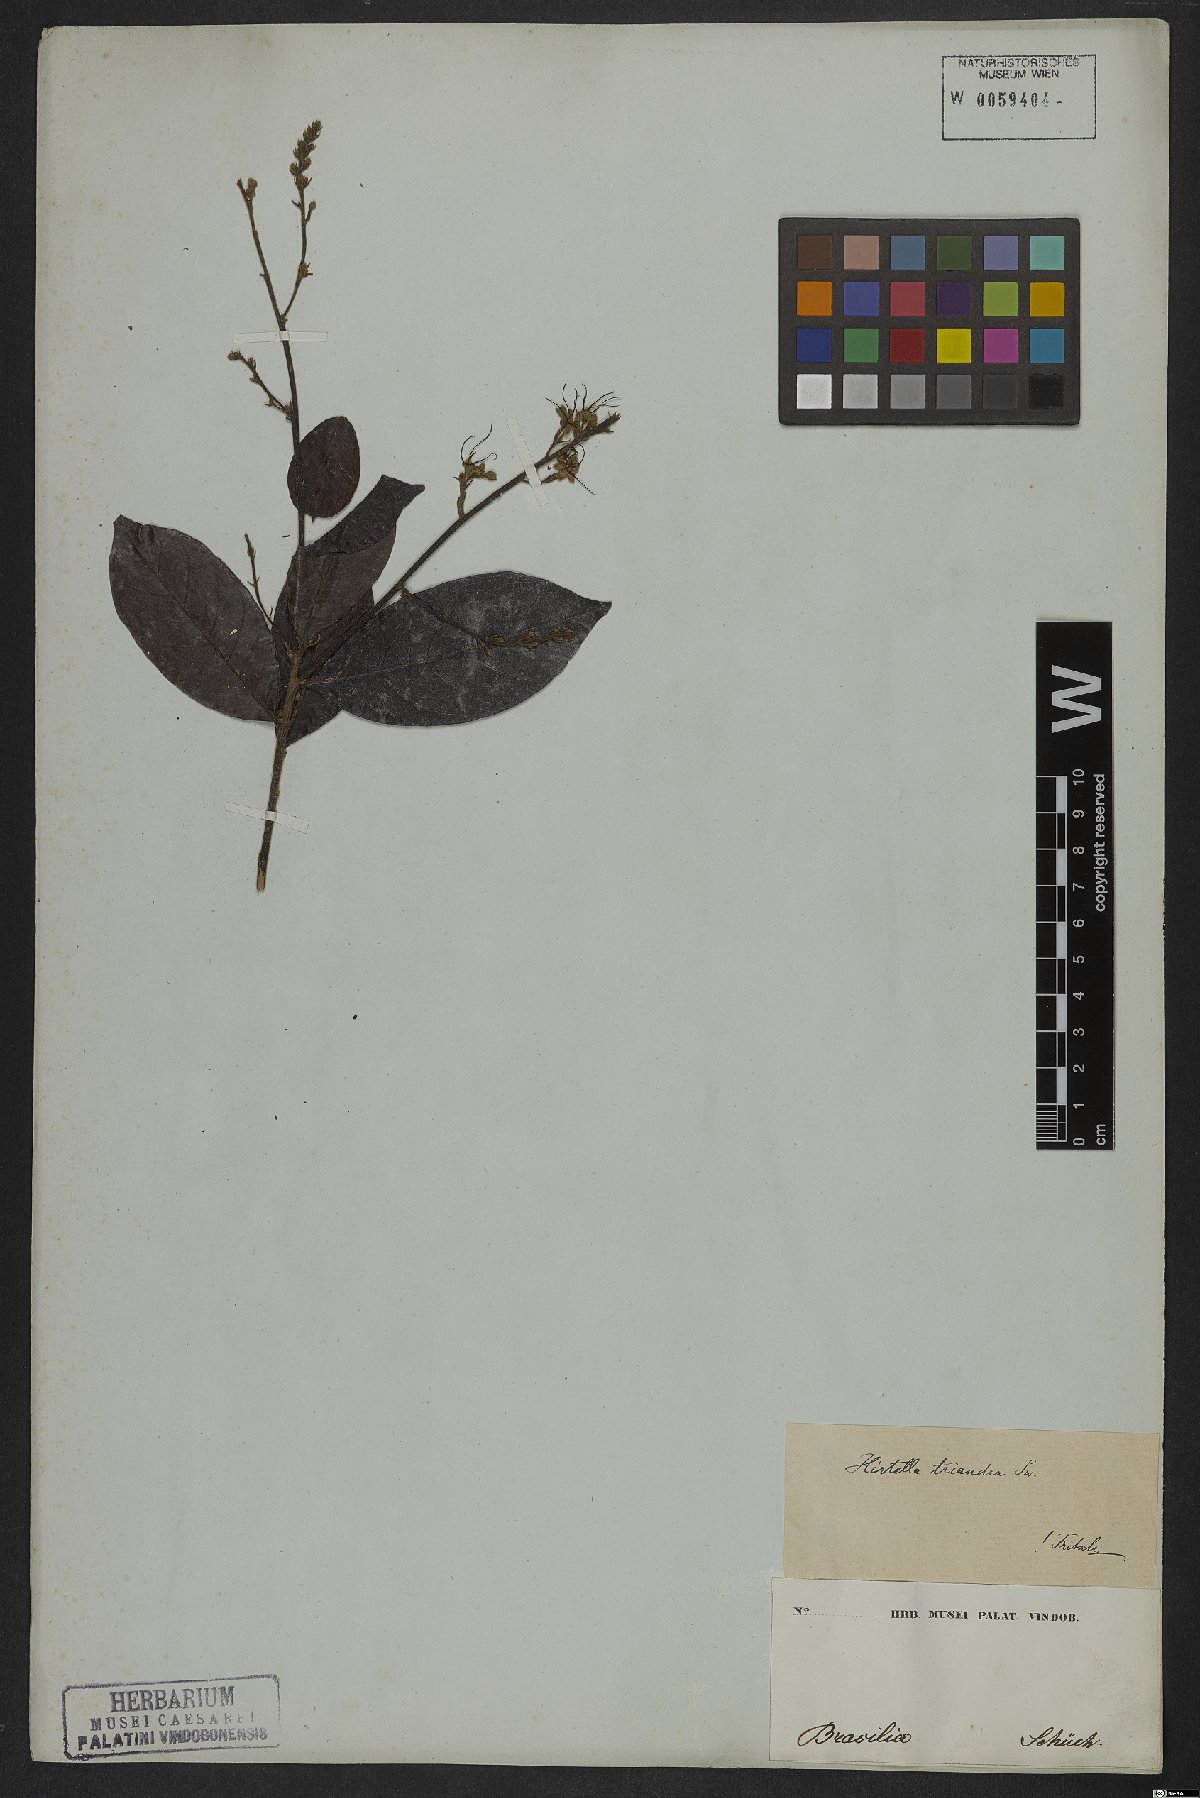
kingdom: Plantae
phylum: Tracheophyta
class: Magnoliopsida
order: Malpighiales
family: Chrysobalanaceae
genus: Hirtella
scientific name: Hirtella triandra
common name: Hairy plum
